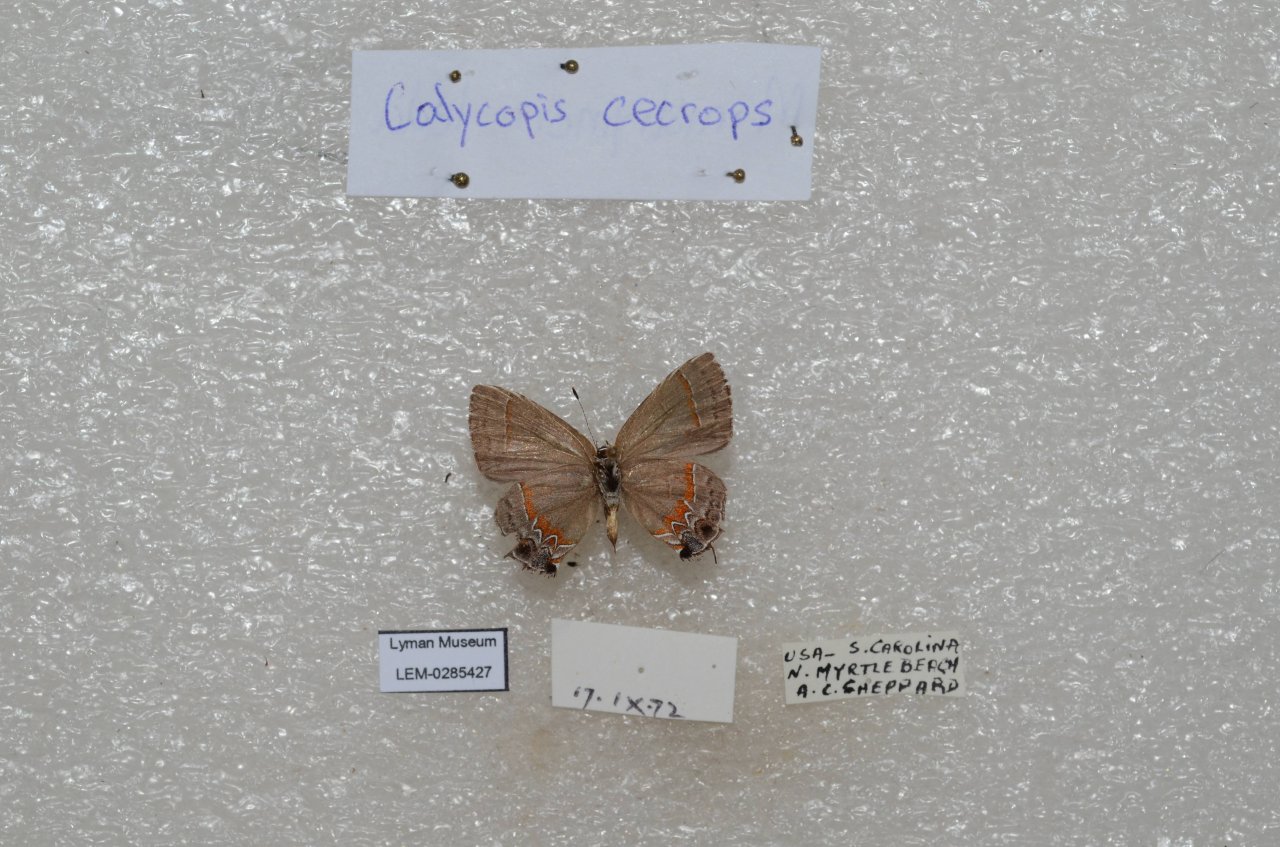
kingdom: Animalia
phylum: Arthropoda
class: Insecta
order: Lepidoptera
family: Lycaenidae
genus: Calycopis
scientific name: Calycopis cecrops
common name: Red-banded Hairstreak
